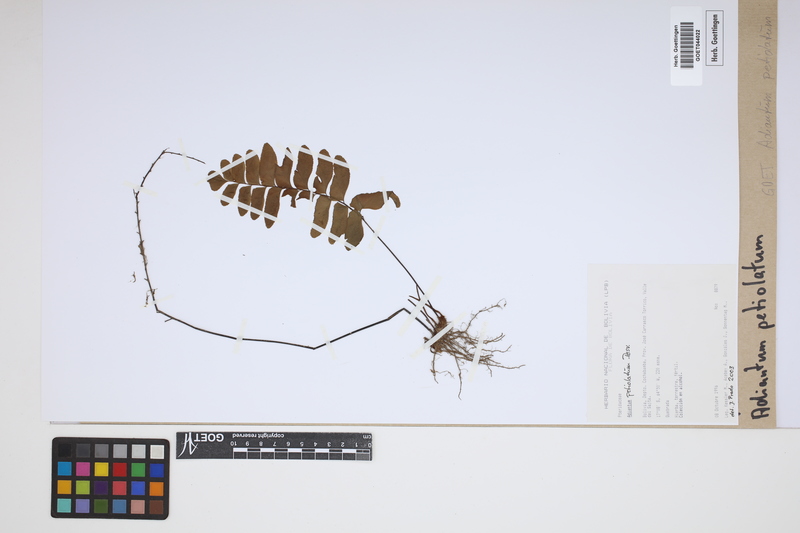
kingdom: Plantae
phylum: Tracheophyta
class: Polypodiopsida
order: Polypodiales
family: Pteridaceae
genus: Adiantum
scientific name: Adiantum petiolatum
